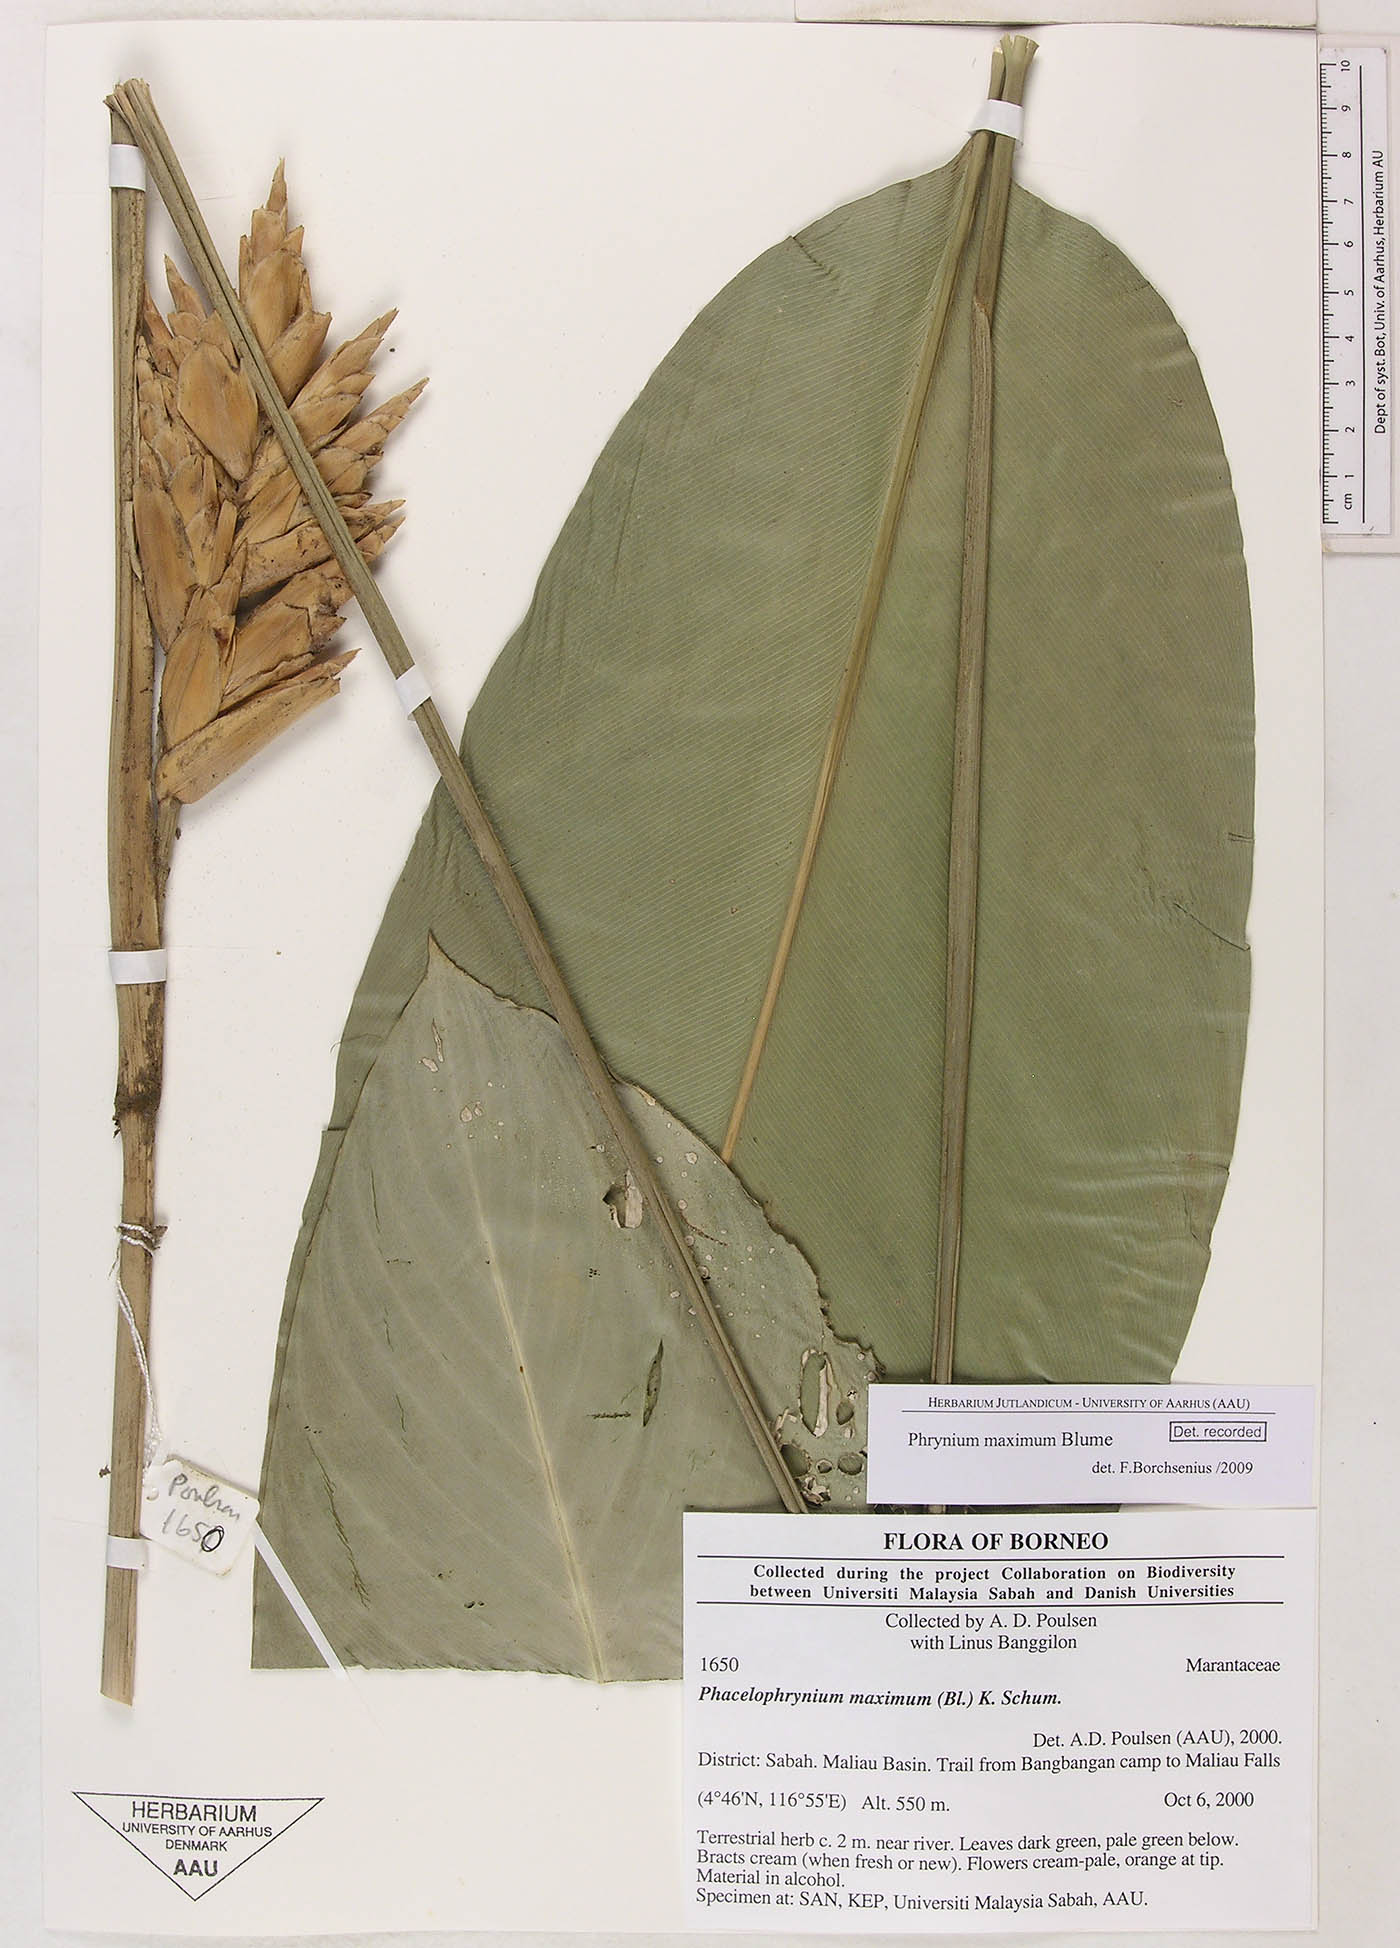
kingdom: Plantae
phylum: Tracheophyta
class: Liliopsida
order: Zingiberales
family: Marantaceae
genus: Phrynium
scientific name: Phrynium maximum
